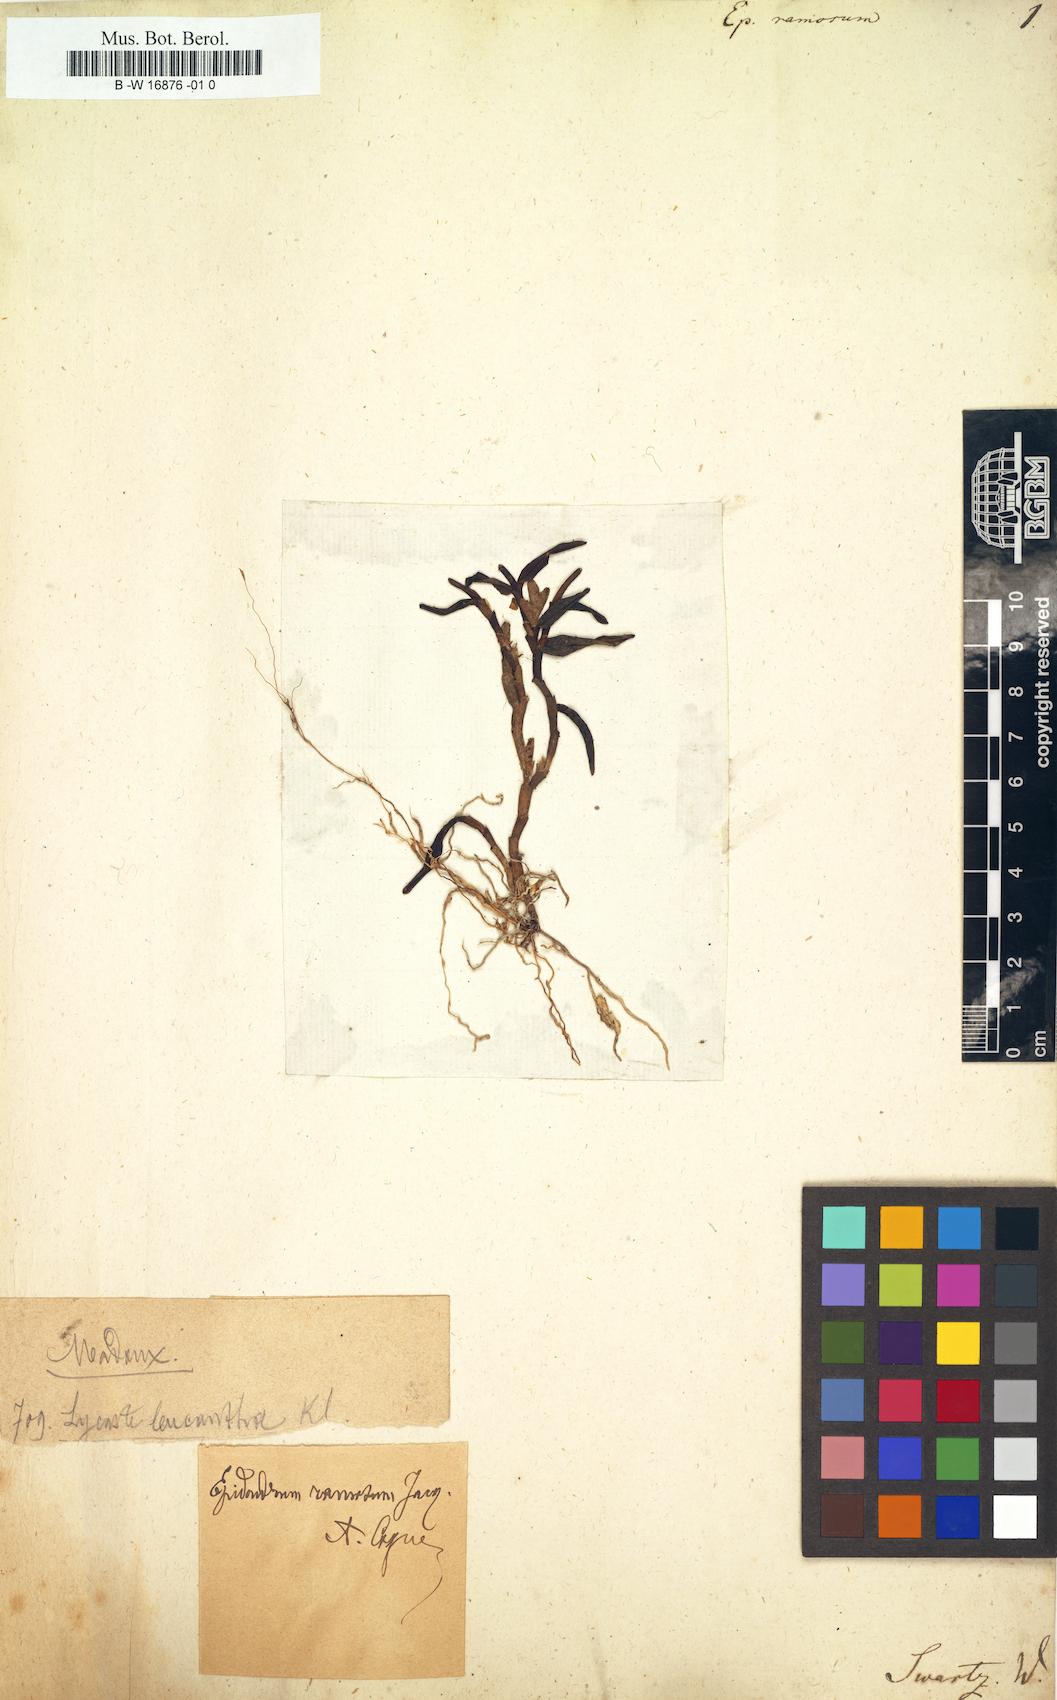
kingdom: Plantae
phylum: Tracheophyta
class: Liliopsida
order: Asparagales
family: Orchidaceae
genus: Epidendrum
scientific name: Epidendrum ramosum
